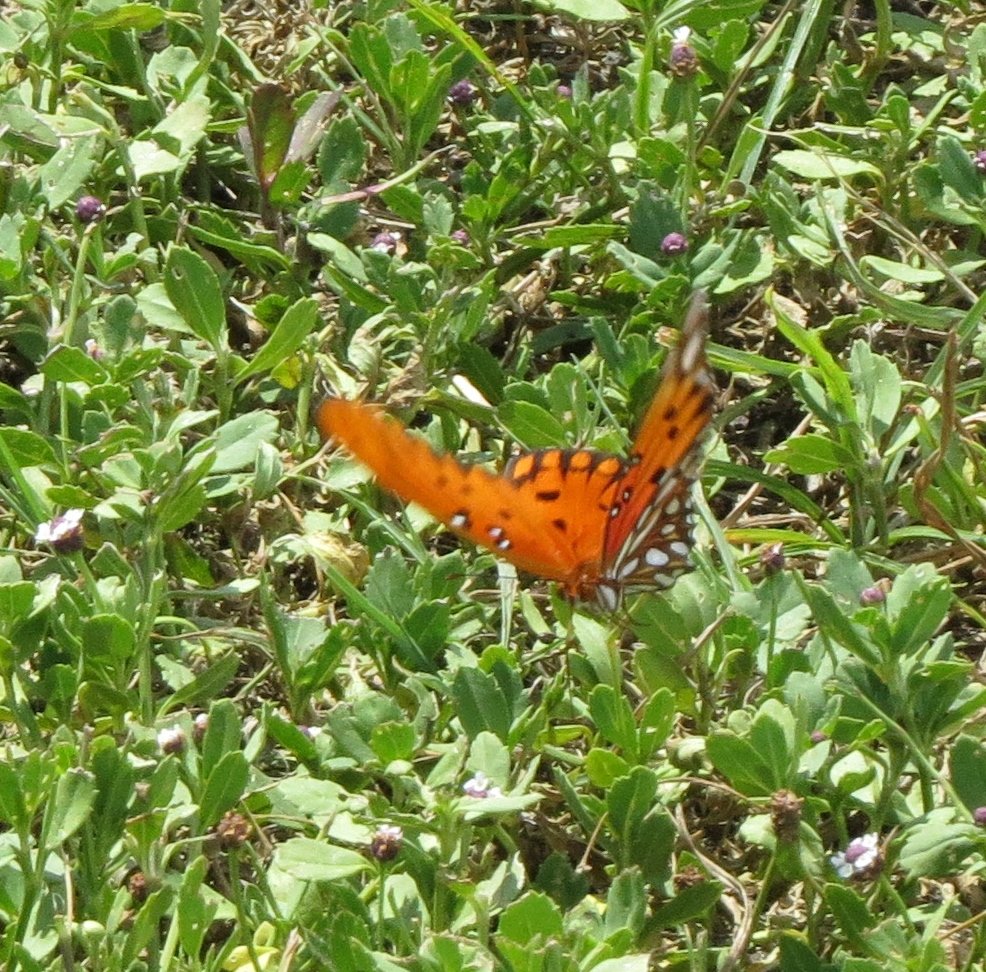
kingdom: Animalia
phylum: Arthropoda
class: Insecta
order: Lepidoptera
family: Nymphalidae
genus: Dione
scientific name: Dione vanillae
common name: Gulf Fritillary
